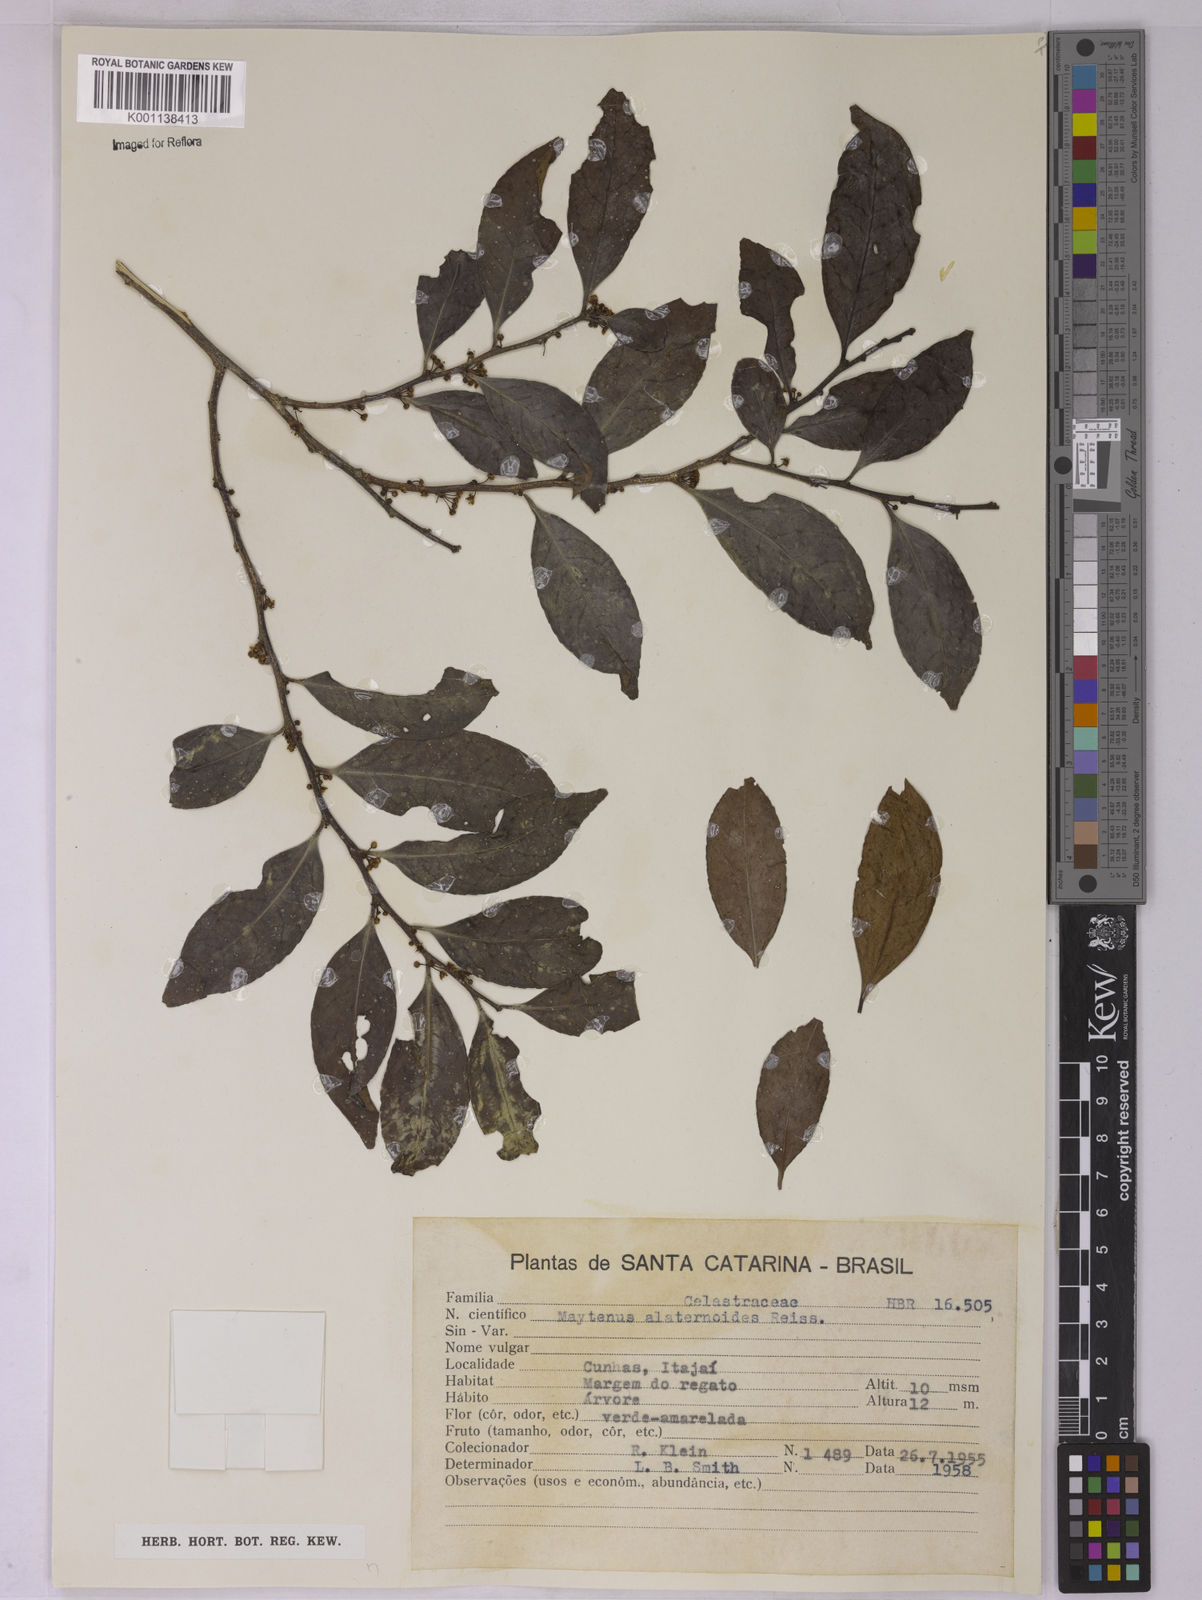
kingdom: Plantae
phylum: Tracheophyta
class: Magnoliopsida
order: Celastrales
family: Celastraceae
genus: Maytenus
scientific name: Maytenus alaternoides
